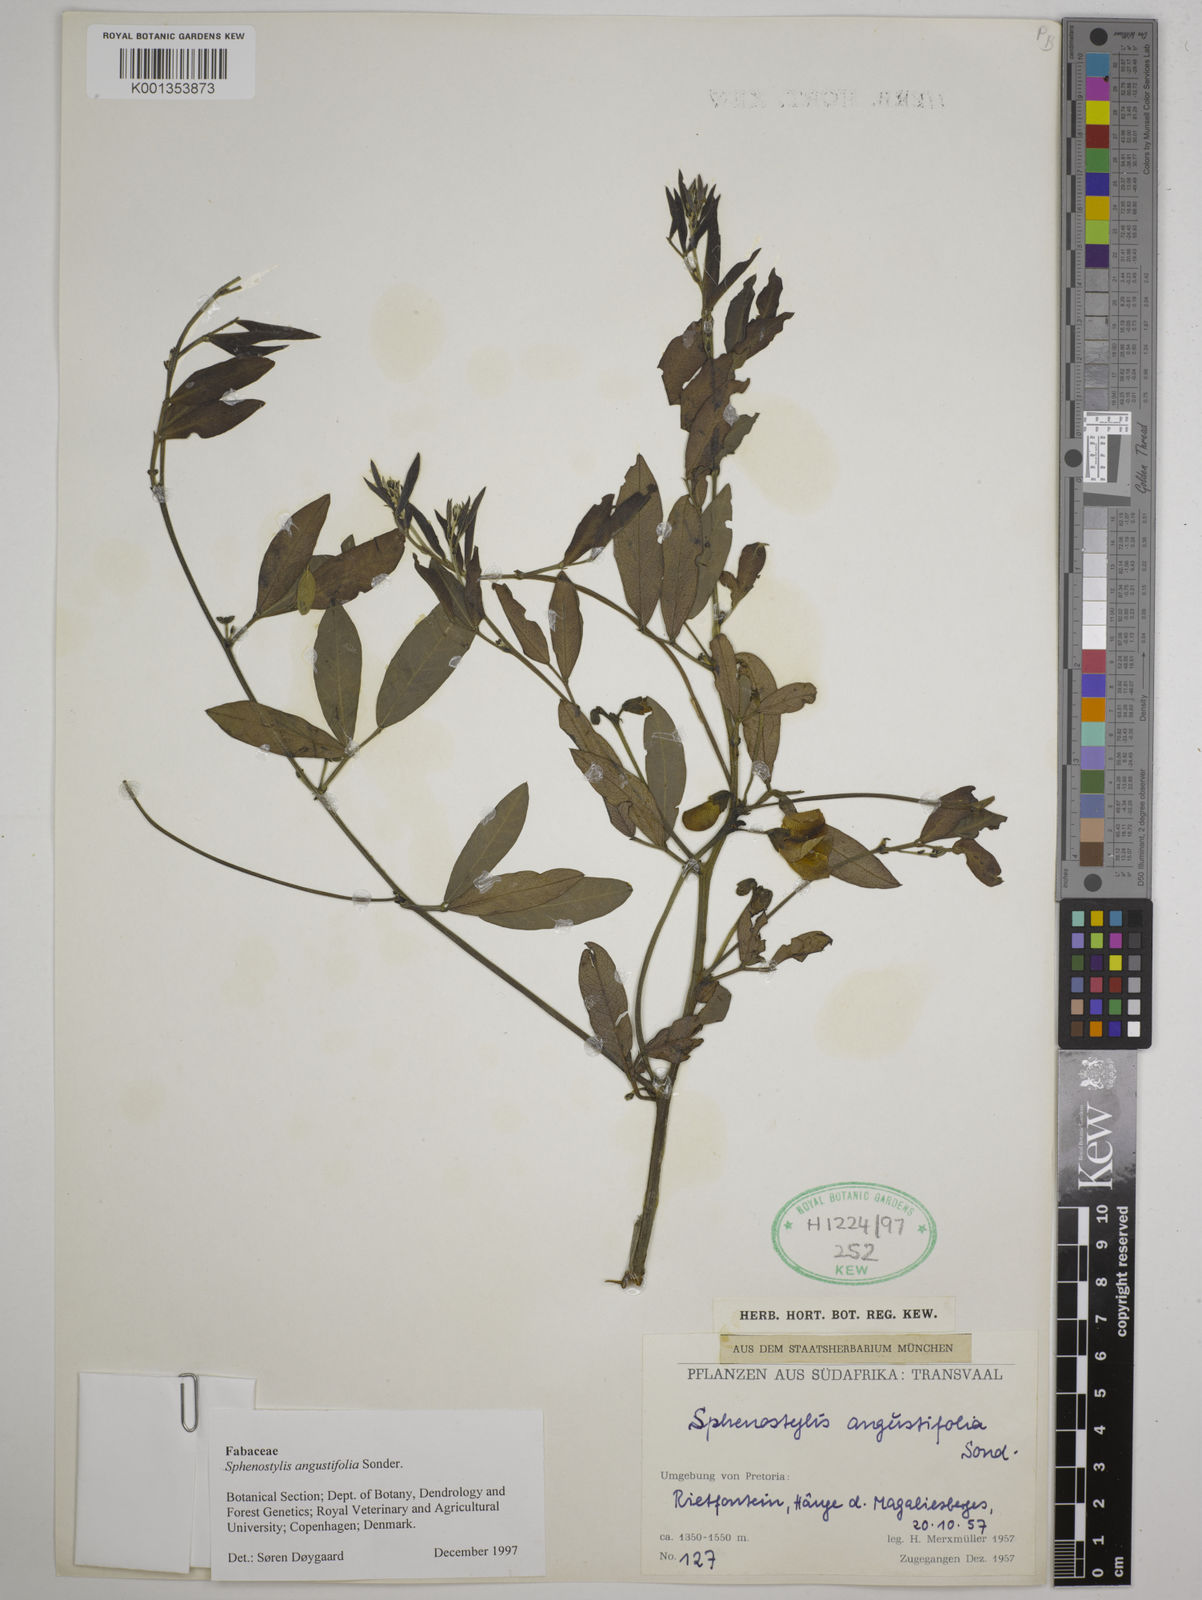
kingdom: Plantae
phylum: Tracheophyta
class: Magnoliopsida
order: Fabales
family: Fabaceae
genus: Sphenostylis
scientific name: Sphenostylis angustifolia
